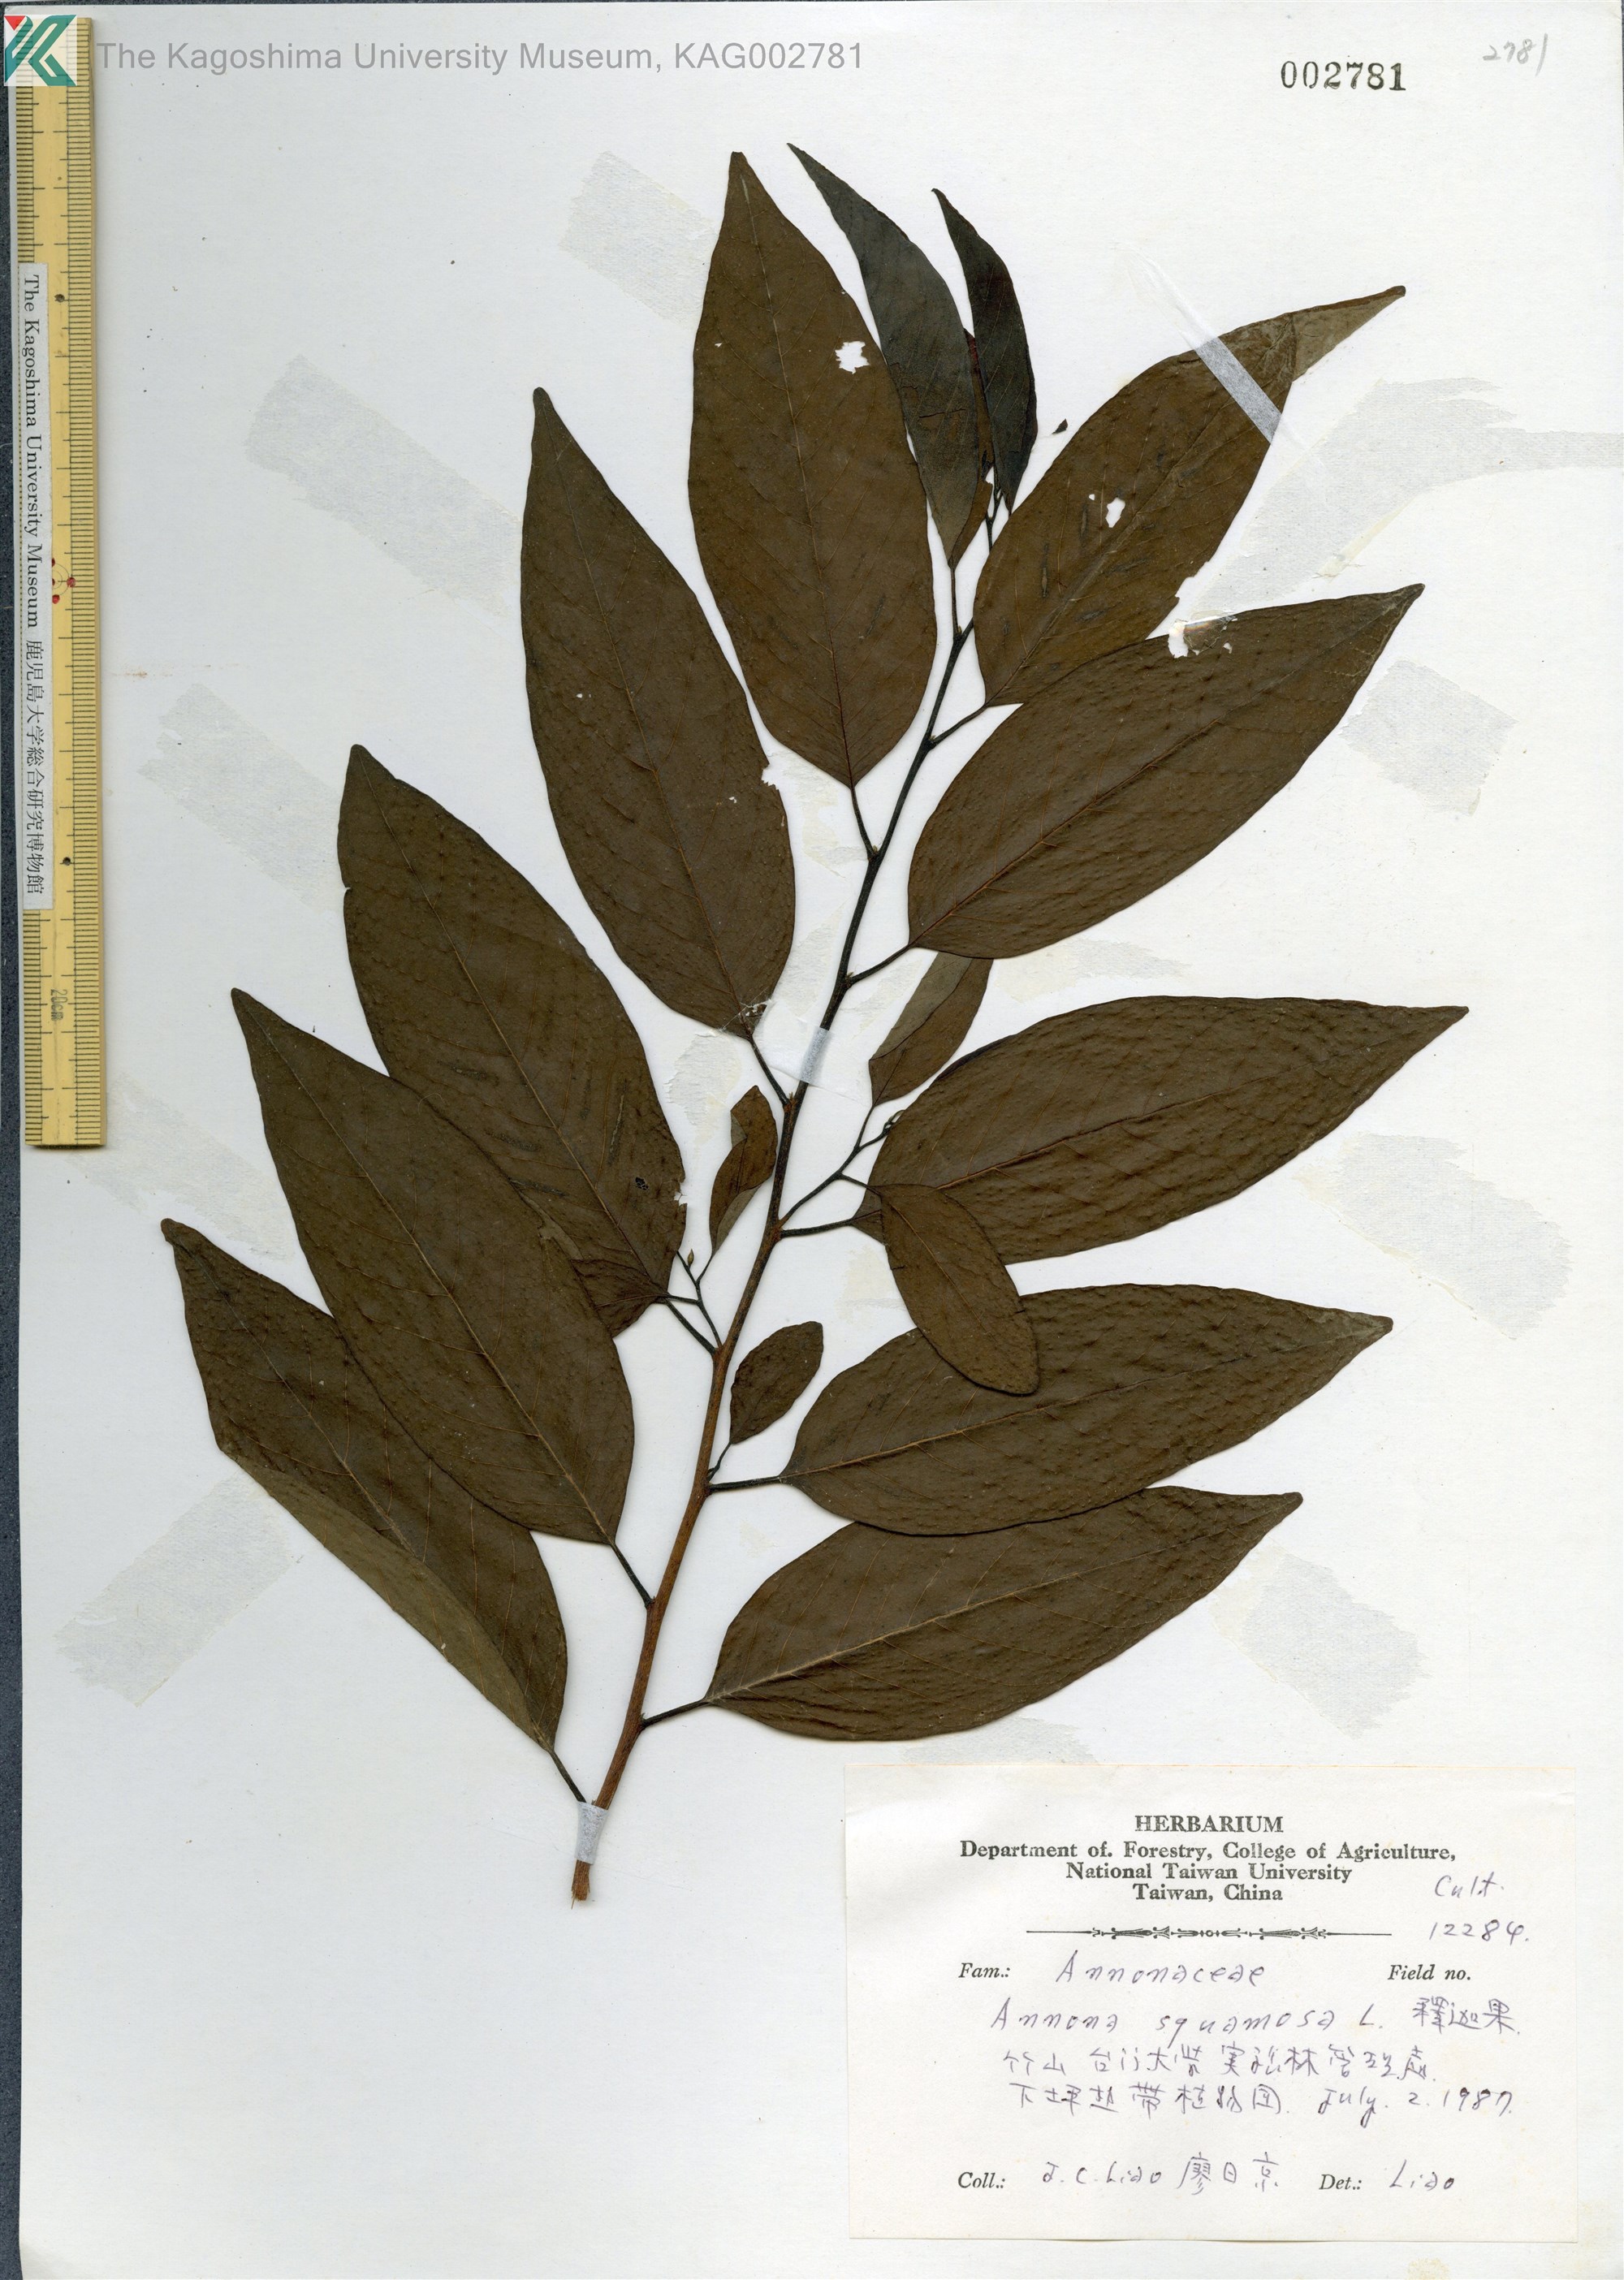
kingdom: Plantae
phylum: Tracheophyta
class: Magnoliopsida
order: Magnoliales
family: Annonaceae
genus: Annona
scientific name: Annona squamosa
